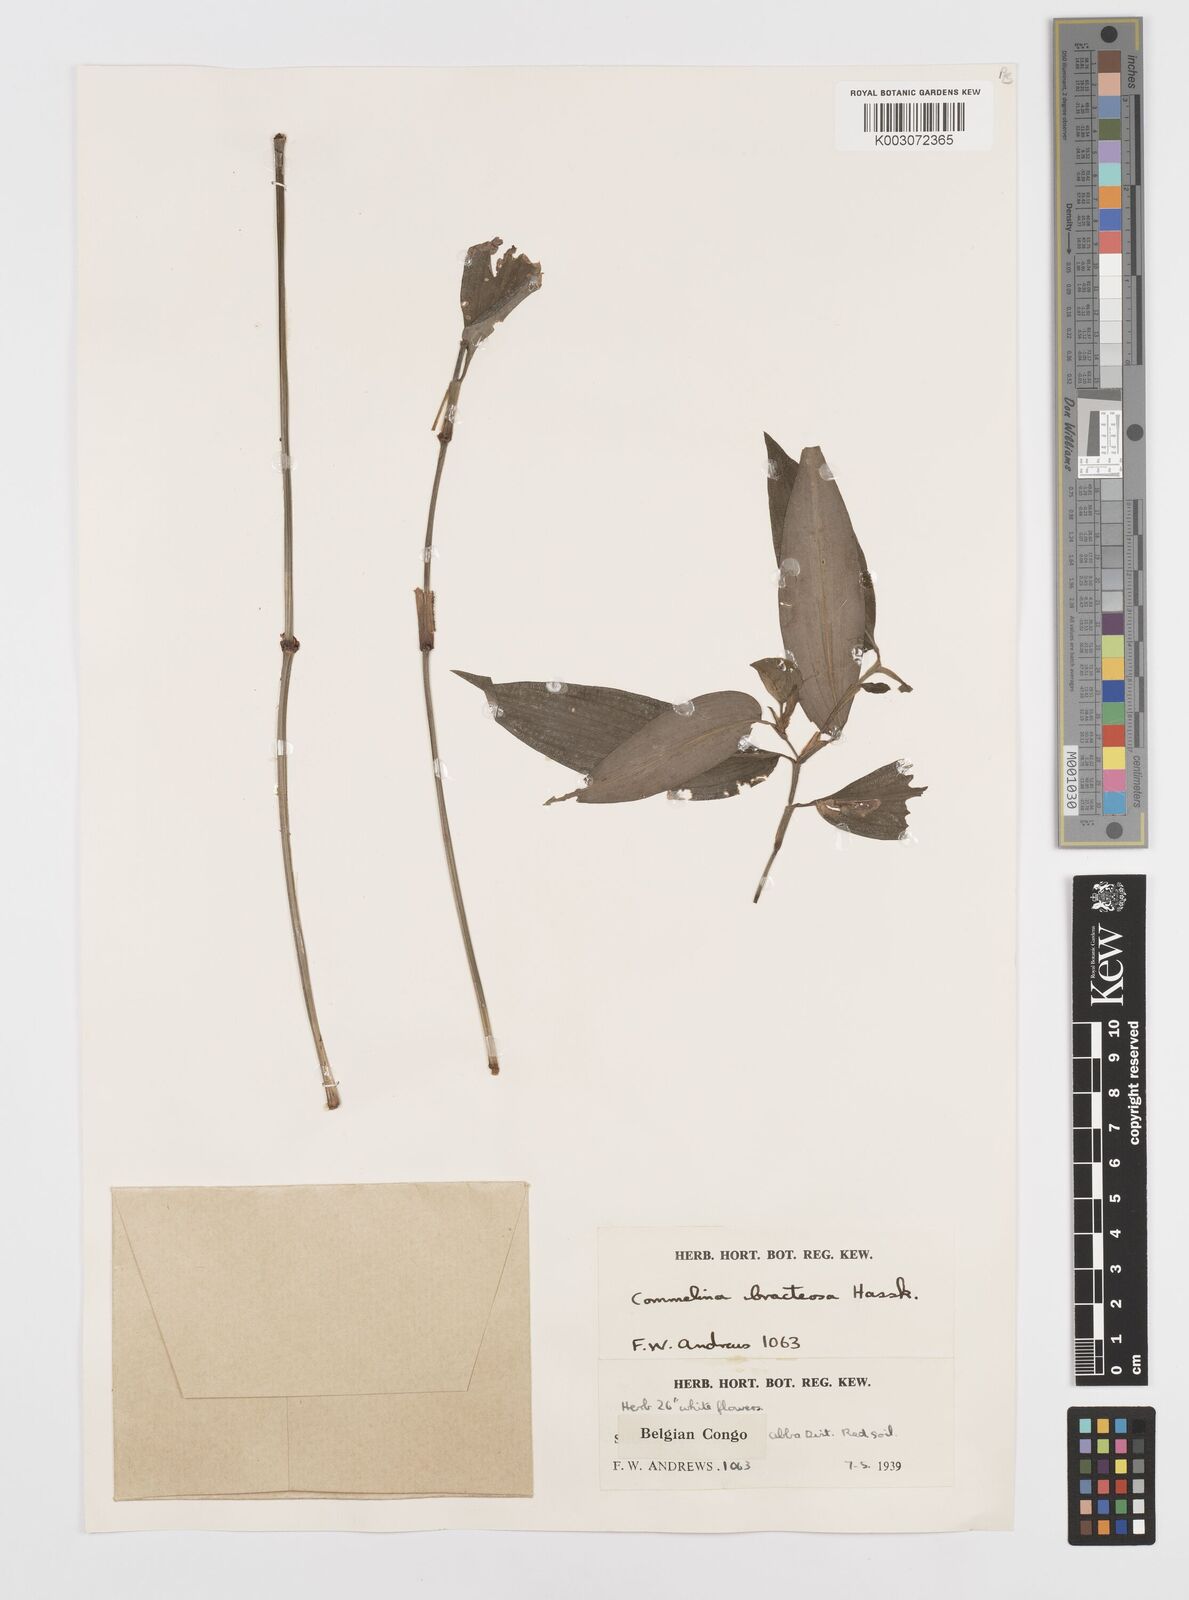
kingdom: Plantae
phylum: Tracheophyta
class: Liliopsida
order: Commelinales
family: Commelinaceae
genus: Commelina
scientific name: Commelina bracteosa
